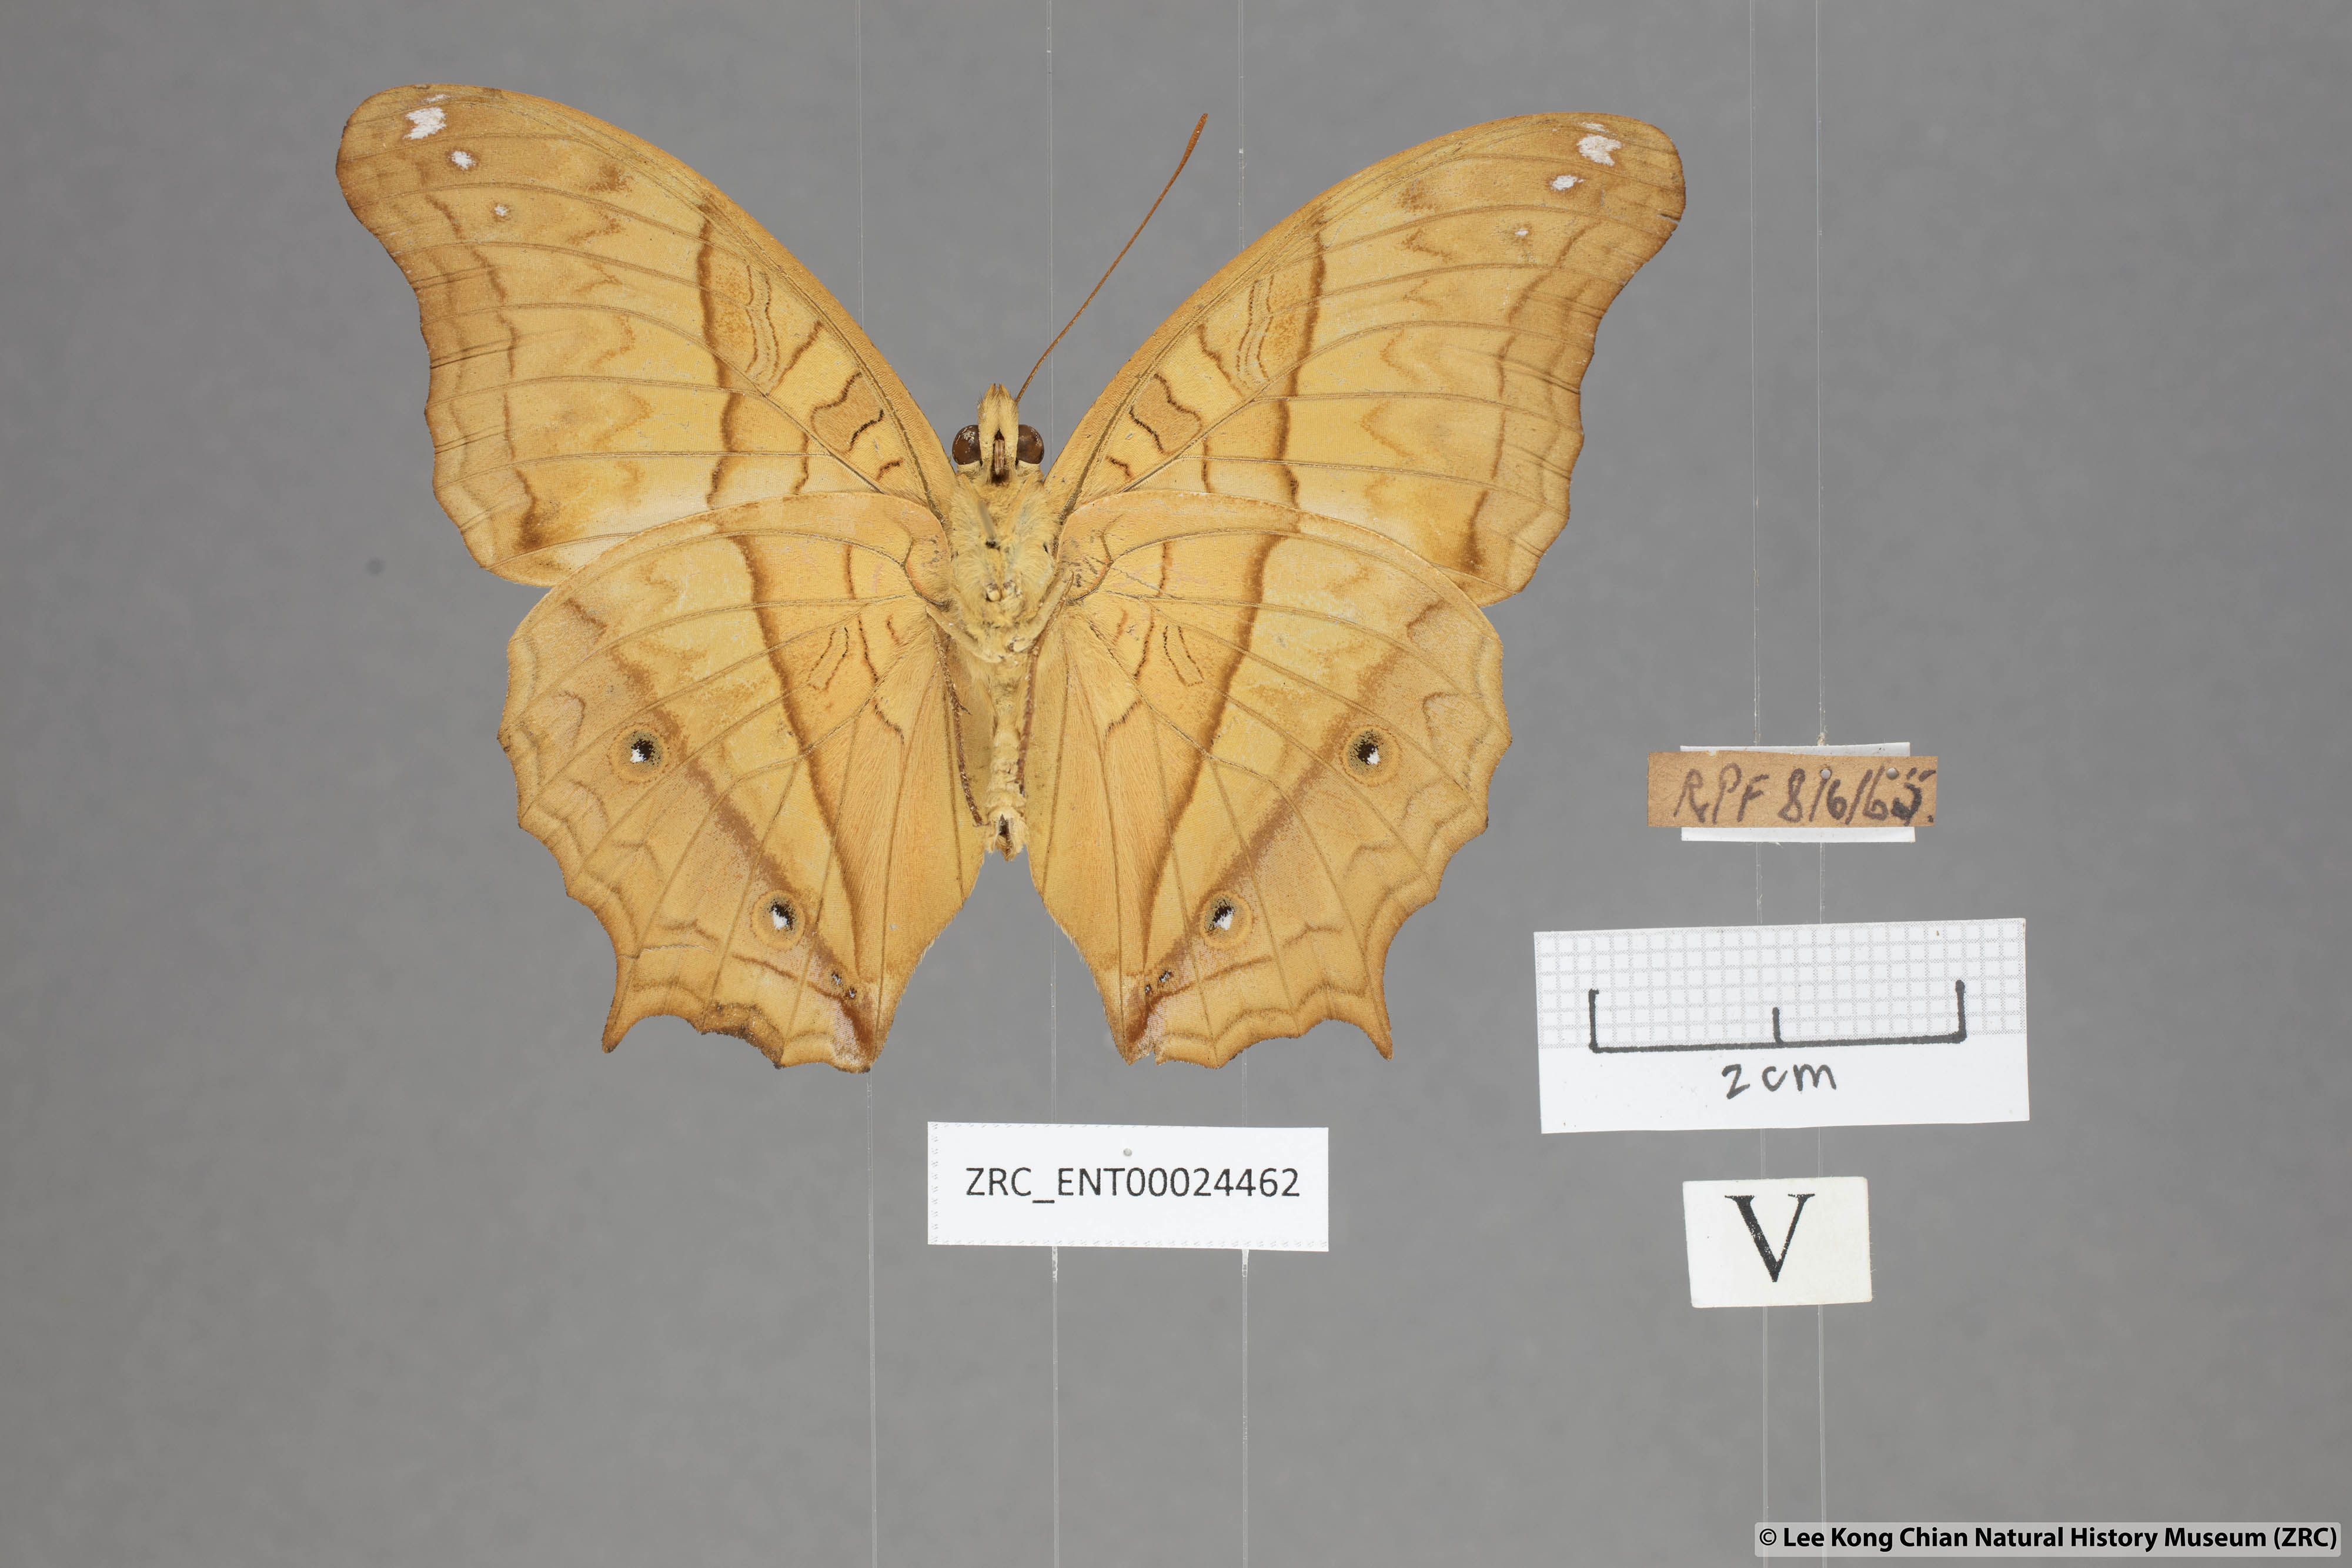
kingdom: Animalia
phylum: Arthropoda
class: Insecta
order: Lepidoptera
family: Nymphalidae
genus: Vindula
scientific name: Vindula deione
